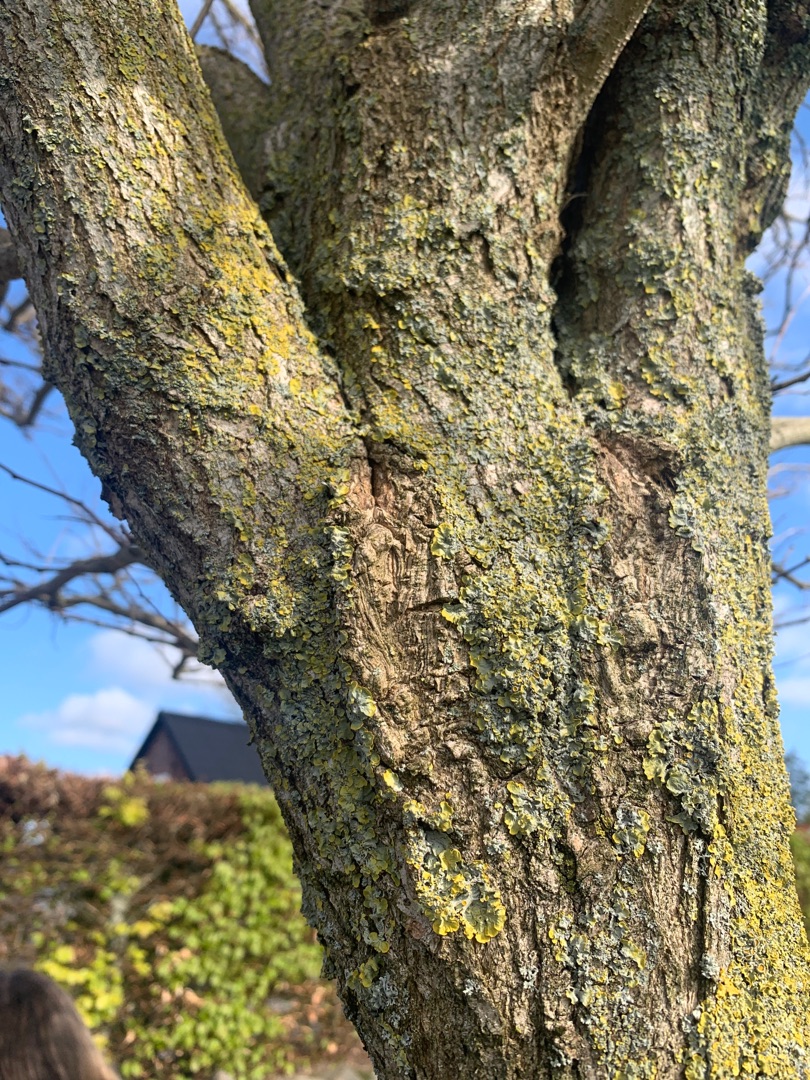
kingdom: Fungi
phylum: Ascomycota
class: Lecanoromycetes
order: Teloschistales
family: Teloschistaceae
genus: Xanthoria
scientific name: Xanthoria parietina
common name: Almindelig væggelav
